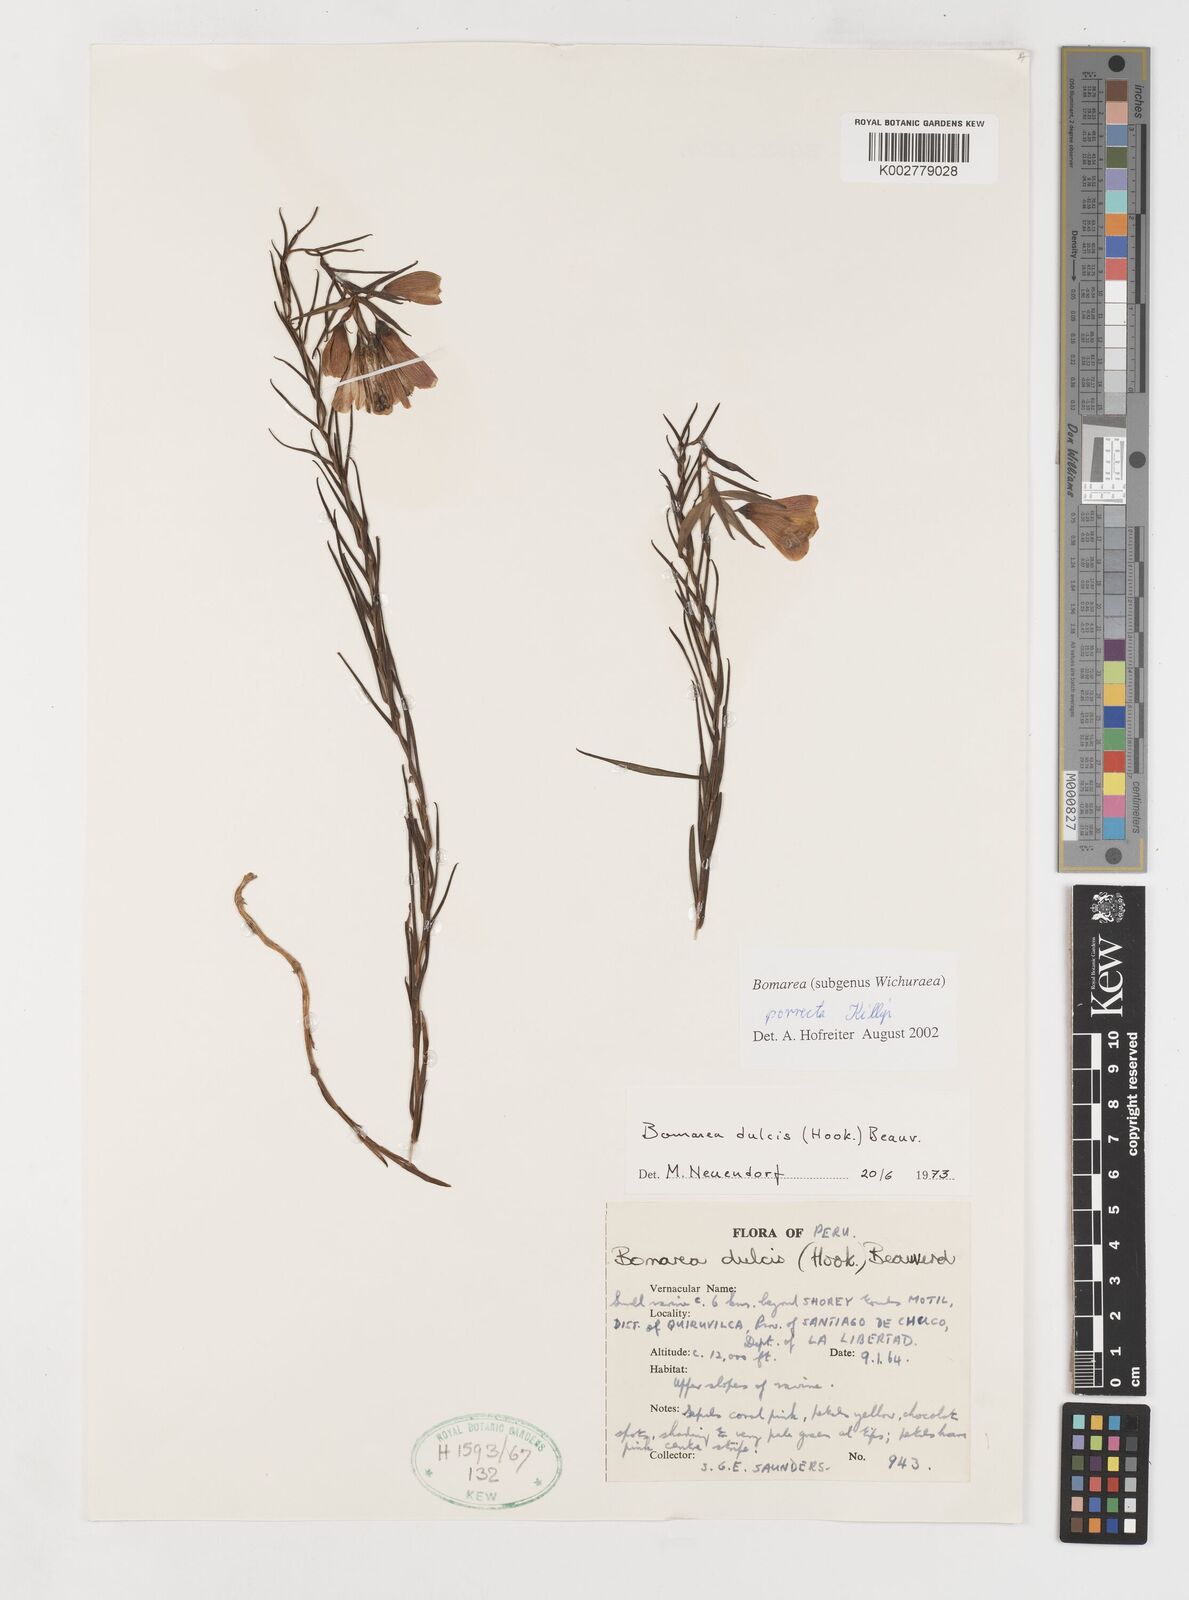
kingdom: Plantae
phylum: Tracheophyta
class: Liliopsida
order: Liliales
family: Alstroemeriaceae
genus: Bomarea
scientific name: Bomarea porrecta
